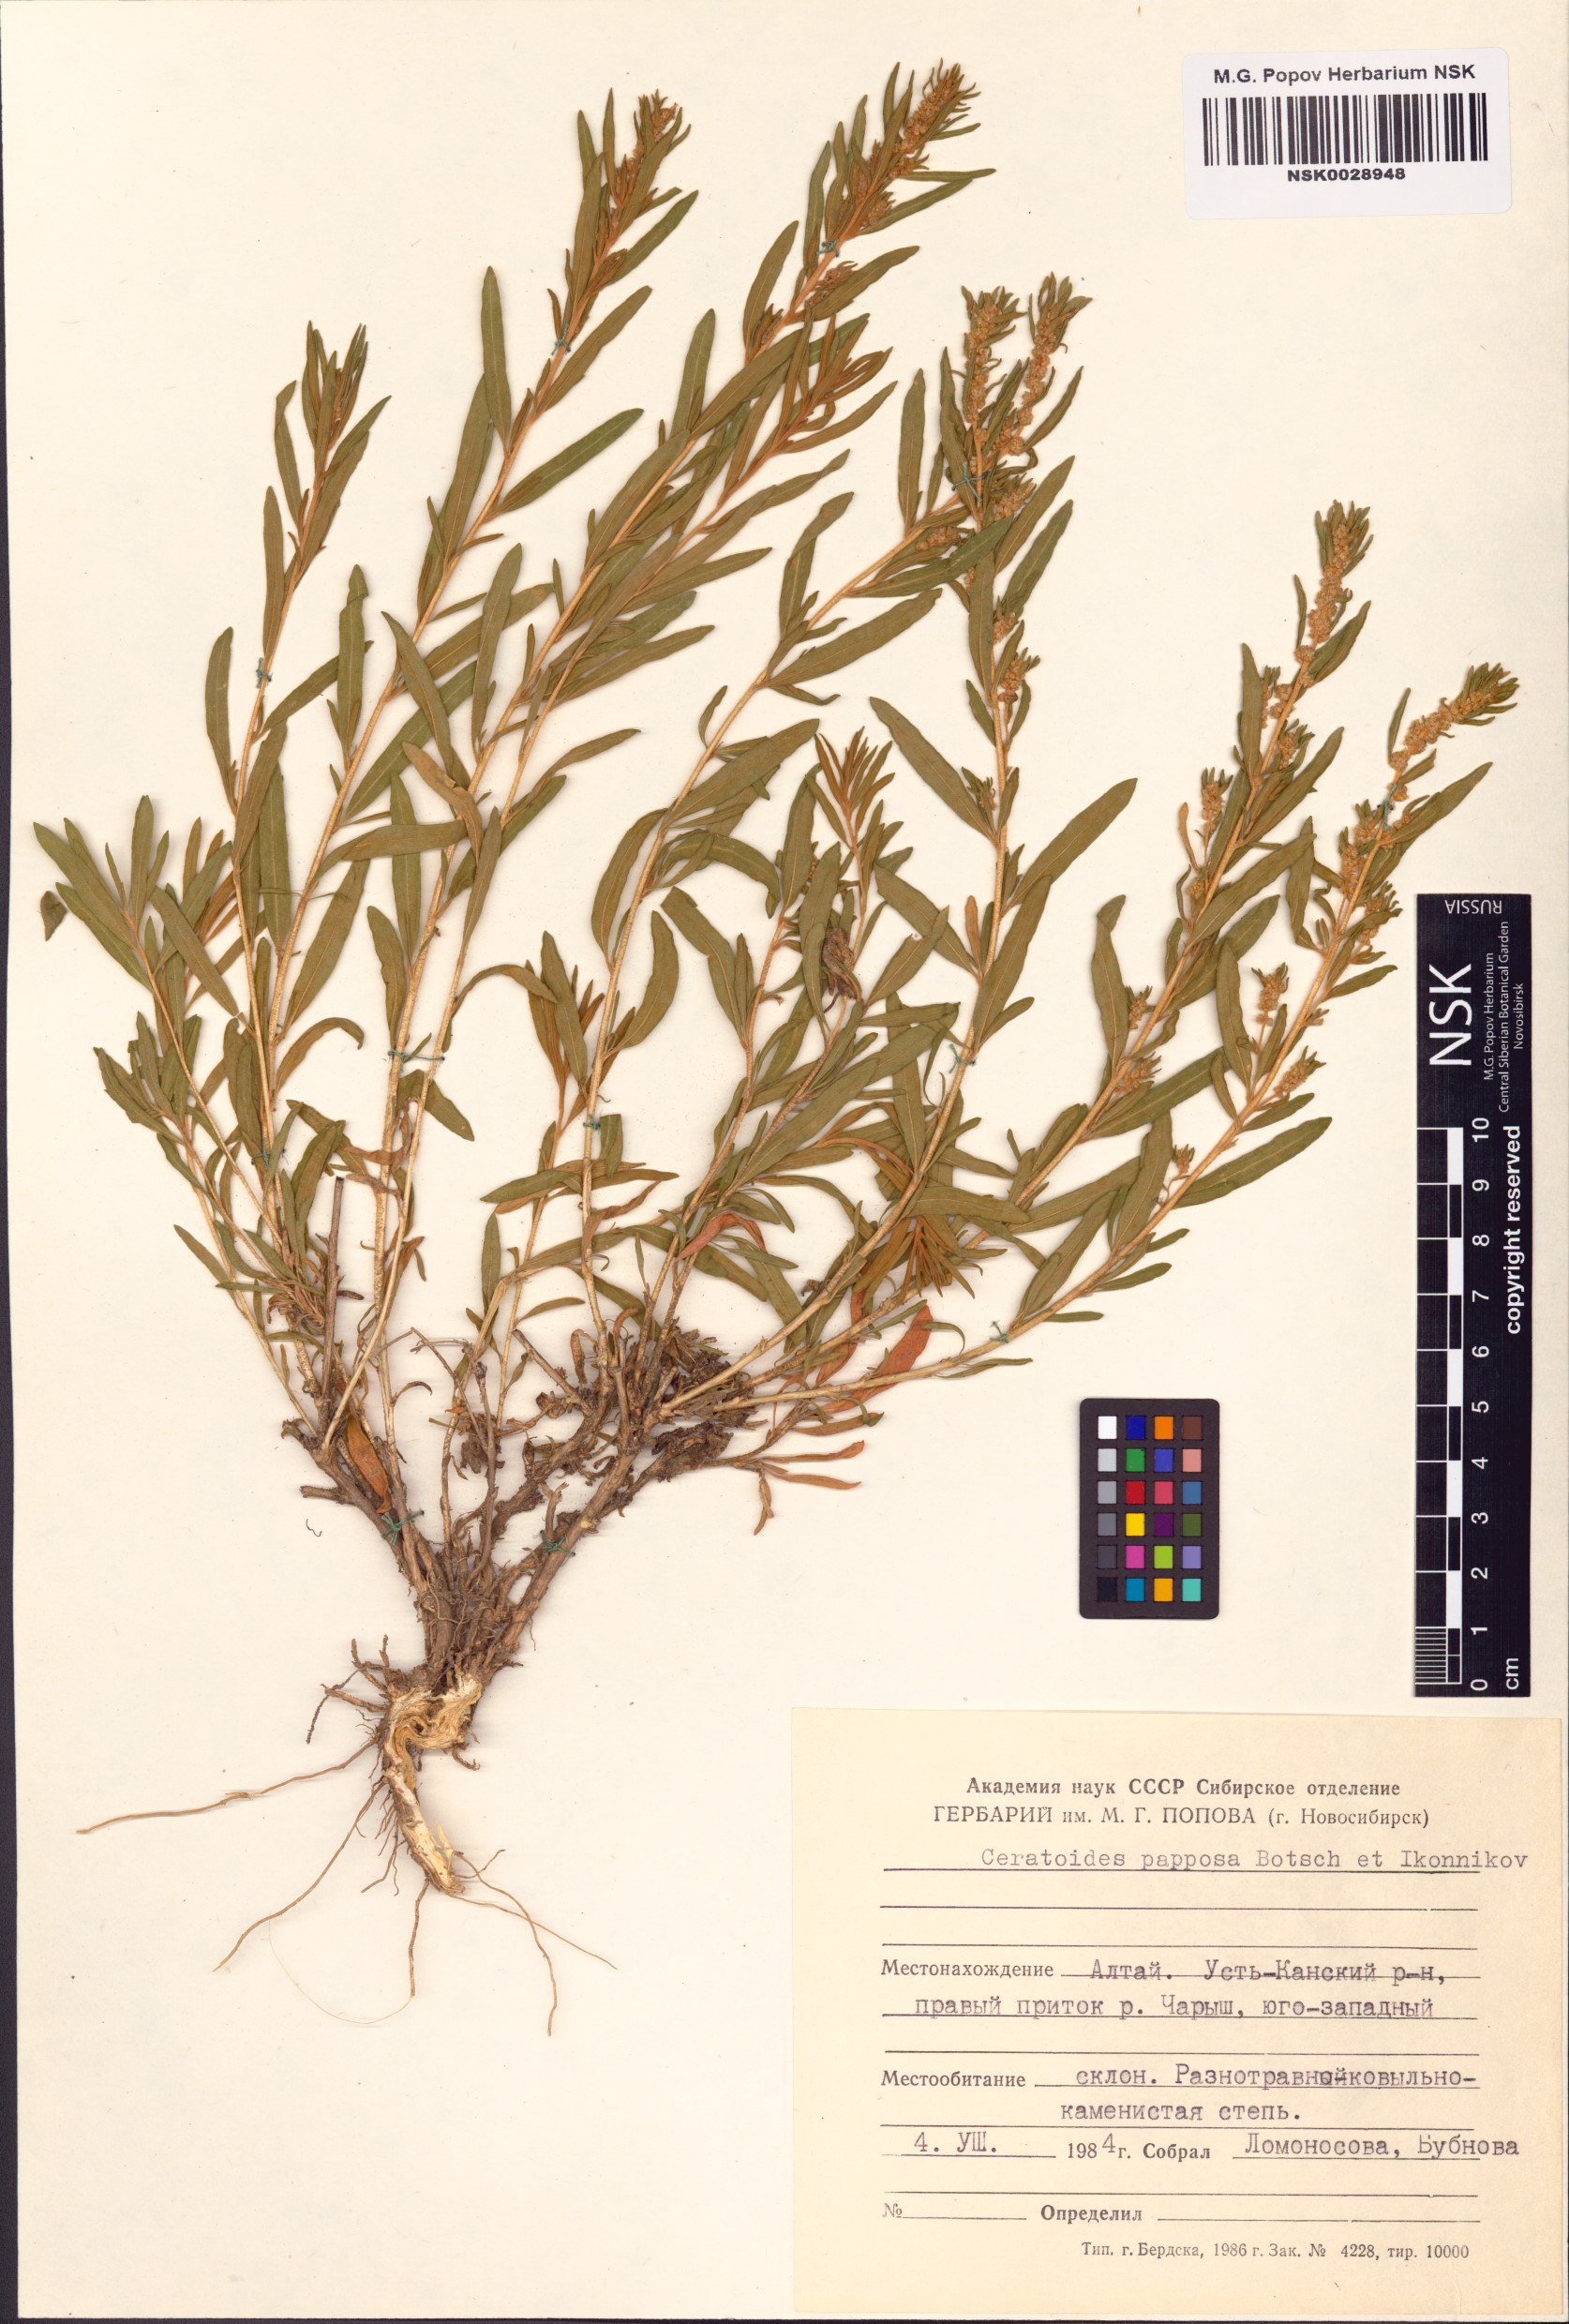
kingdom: Plantae
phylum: Tracheophyta
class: Magnoliopsida
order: Caryophyllales
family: Amaranthaceae
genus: Krascheninnikovia
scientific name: Krascheninnikovia ceratoides
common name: Pamirian winterfat
